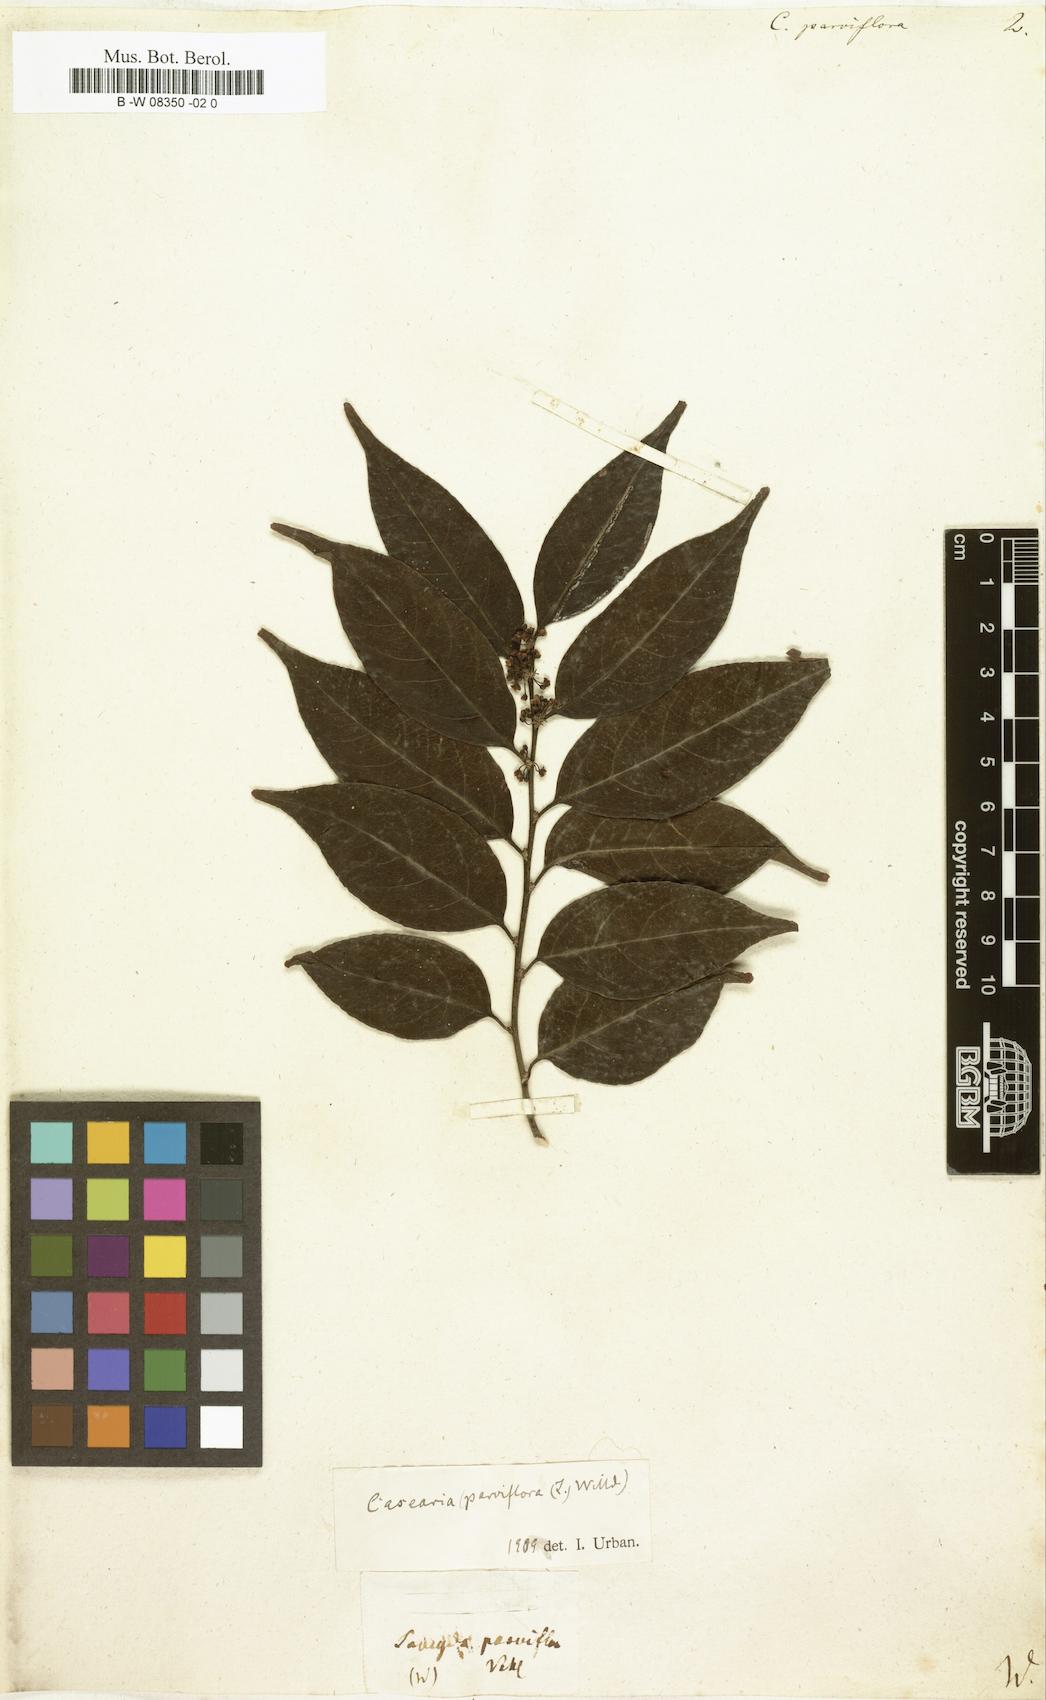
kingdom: Plantae
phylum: Tracheophyta
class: Magnoliopsida
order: Malpighiales
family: Salicaceae
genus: Casearia
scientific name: Casearia
